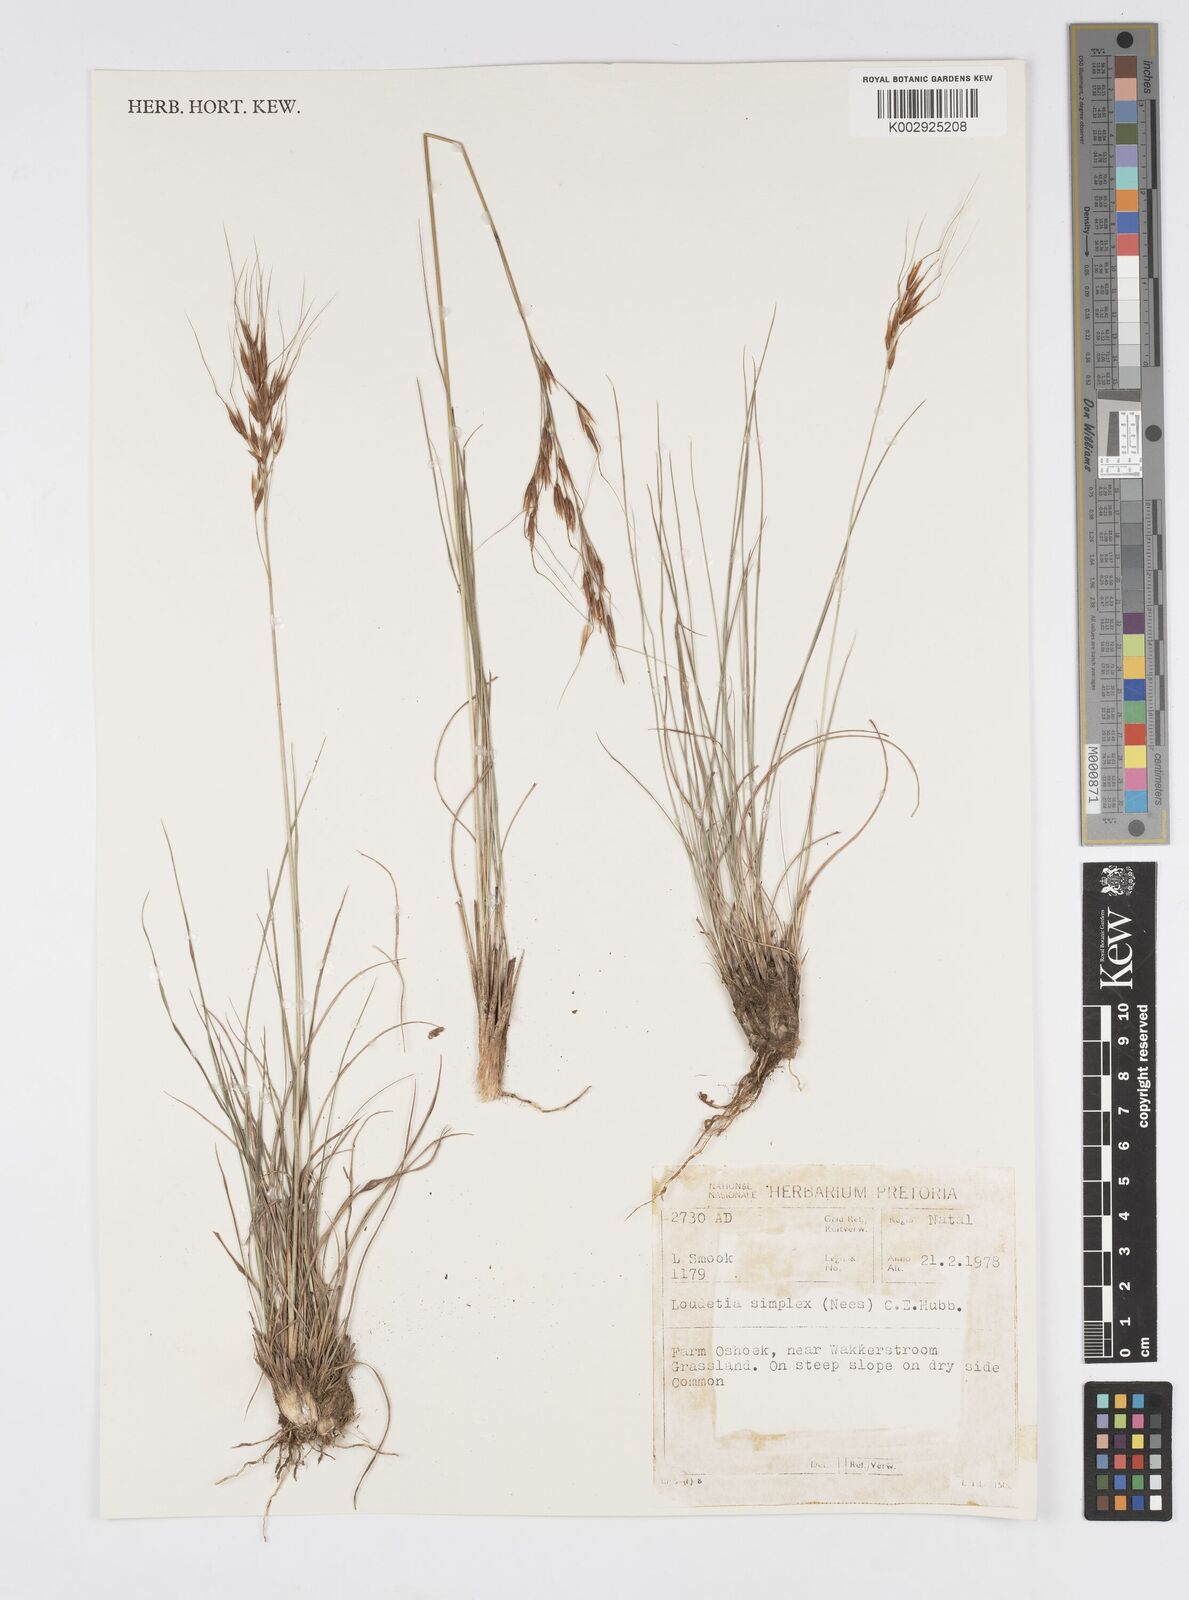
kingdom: Plantae
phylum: Tracheophyta
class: Liliopsida
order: Poales
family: Poaceae
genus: Loudetia
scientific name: Loudetia simplex
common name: Common russet grass
